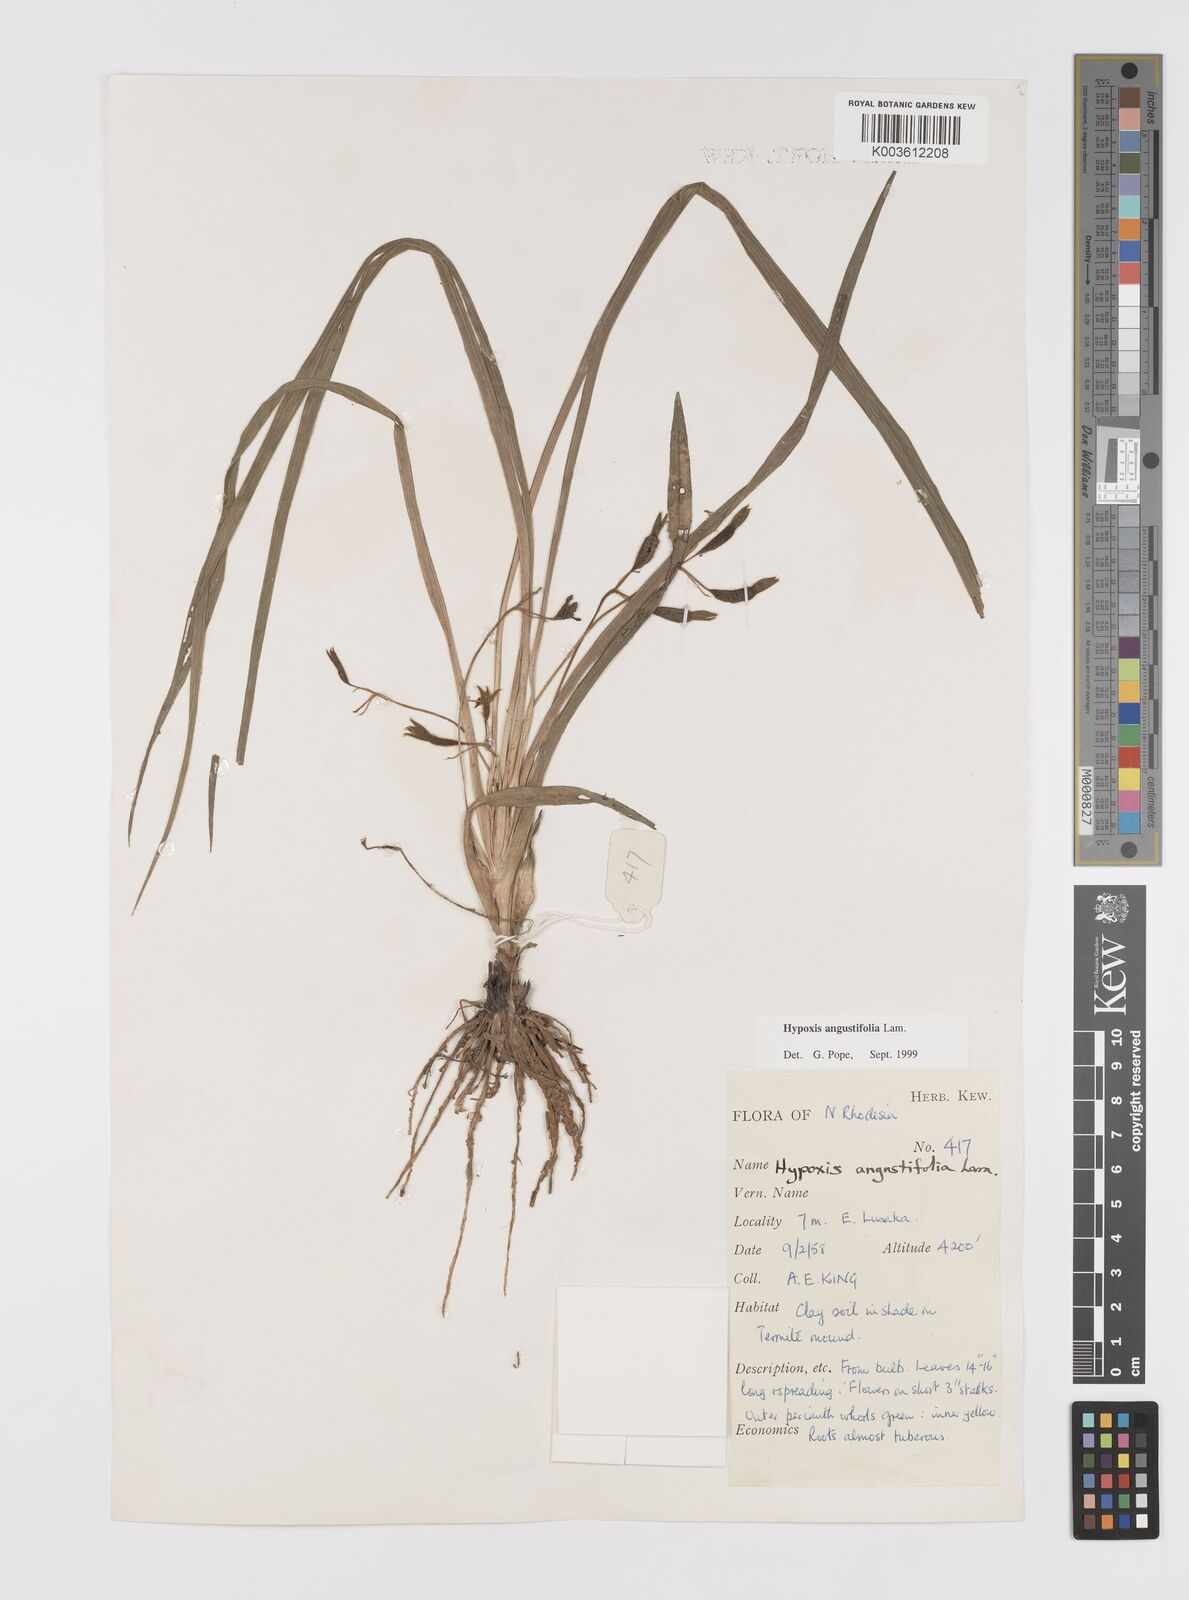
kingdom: Plantae
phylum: Tracheophyta
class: Liliopsida
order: Asparagales
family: Hypoxidaceae
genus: Hypoxis
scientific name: Hypoxis angustifolia
